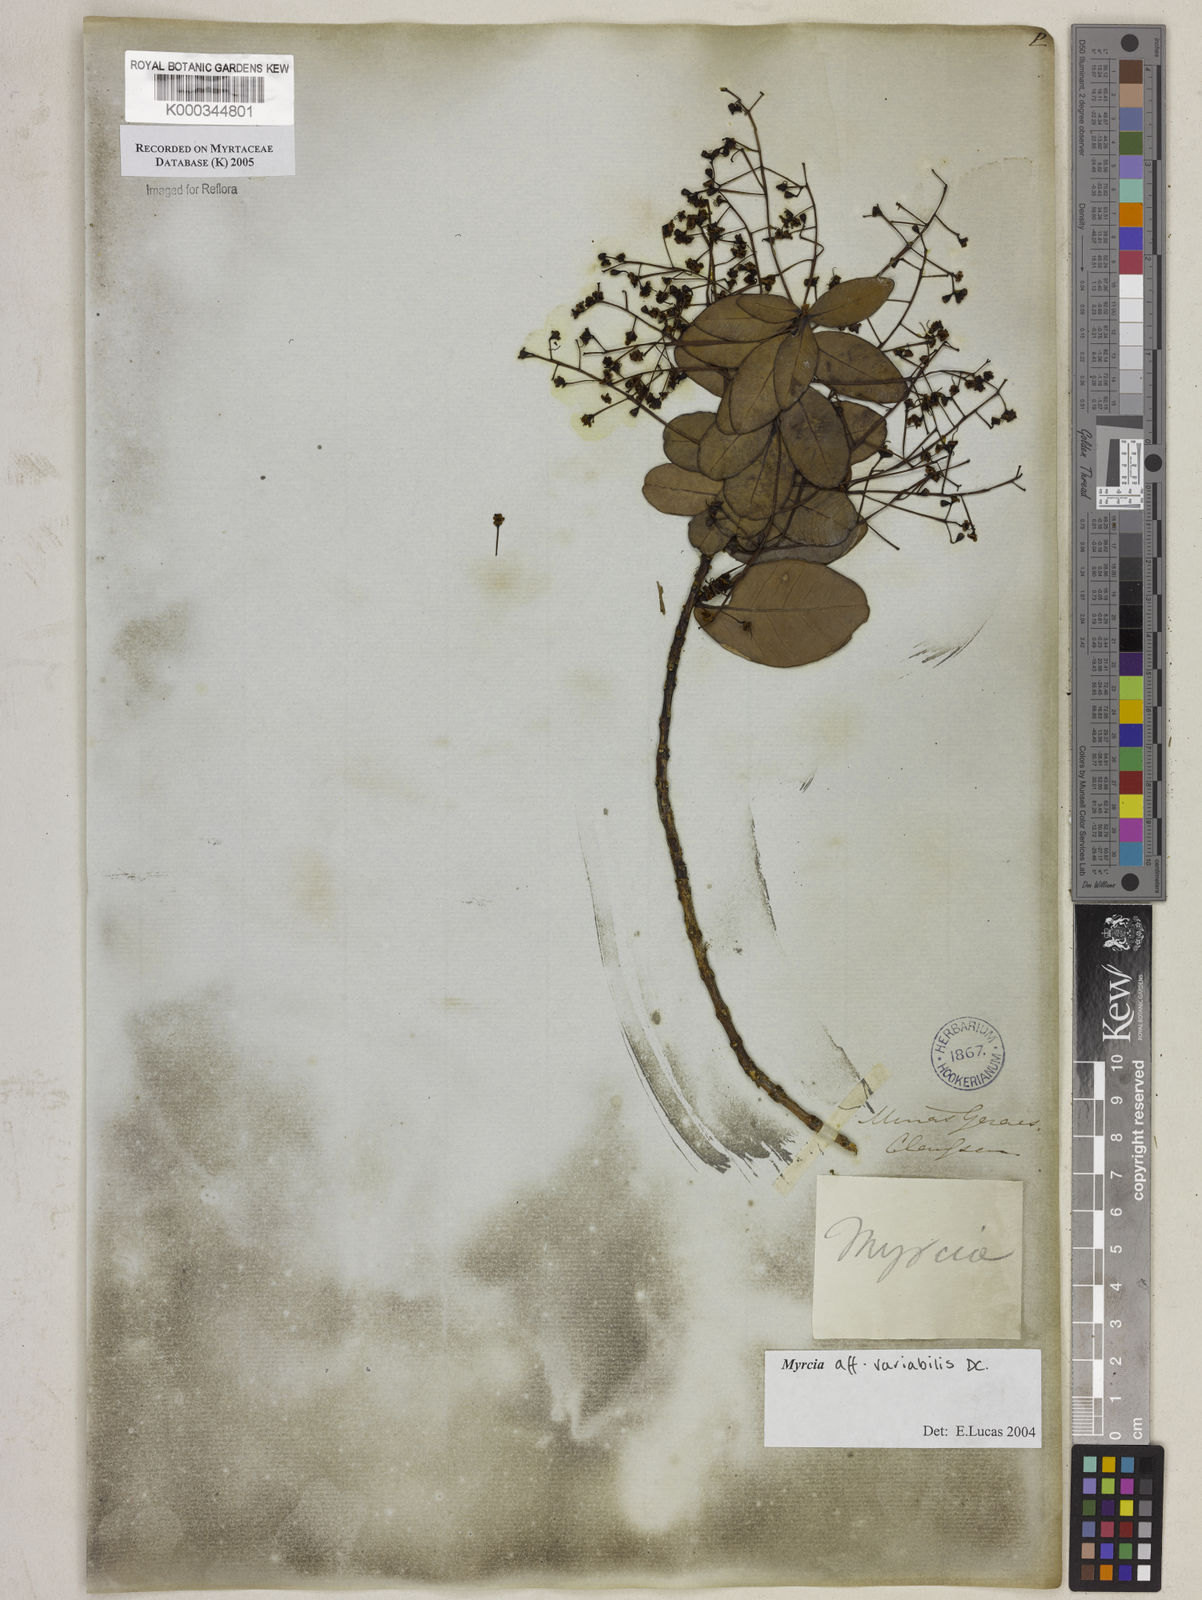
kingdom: Plantae
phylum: Tracheophyta
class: Magnoliopsida
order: Myrtales
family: Myrtaceae
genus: Myrcia
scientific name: Myrcia variabilis
